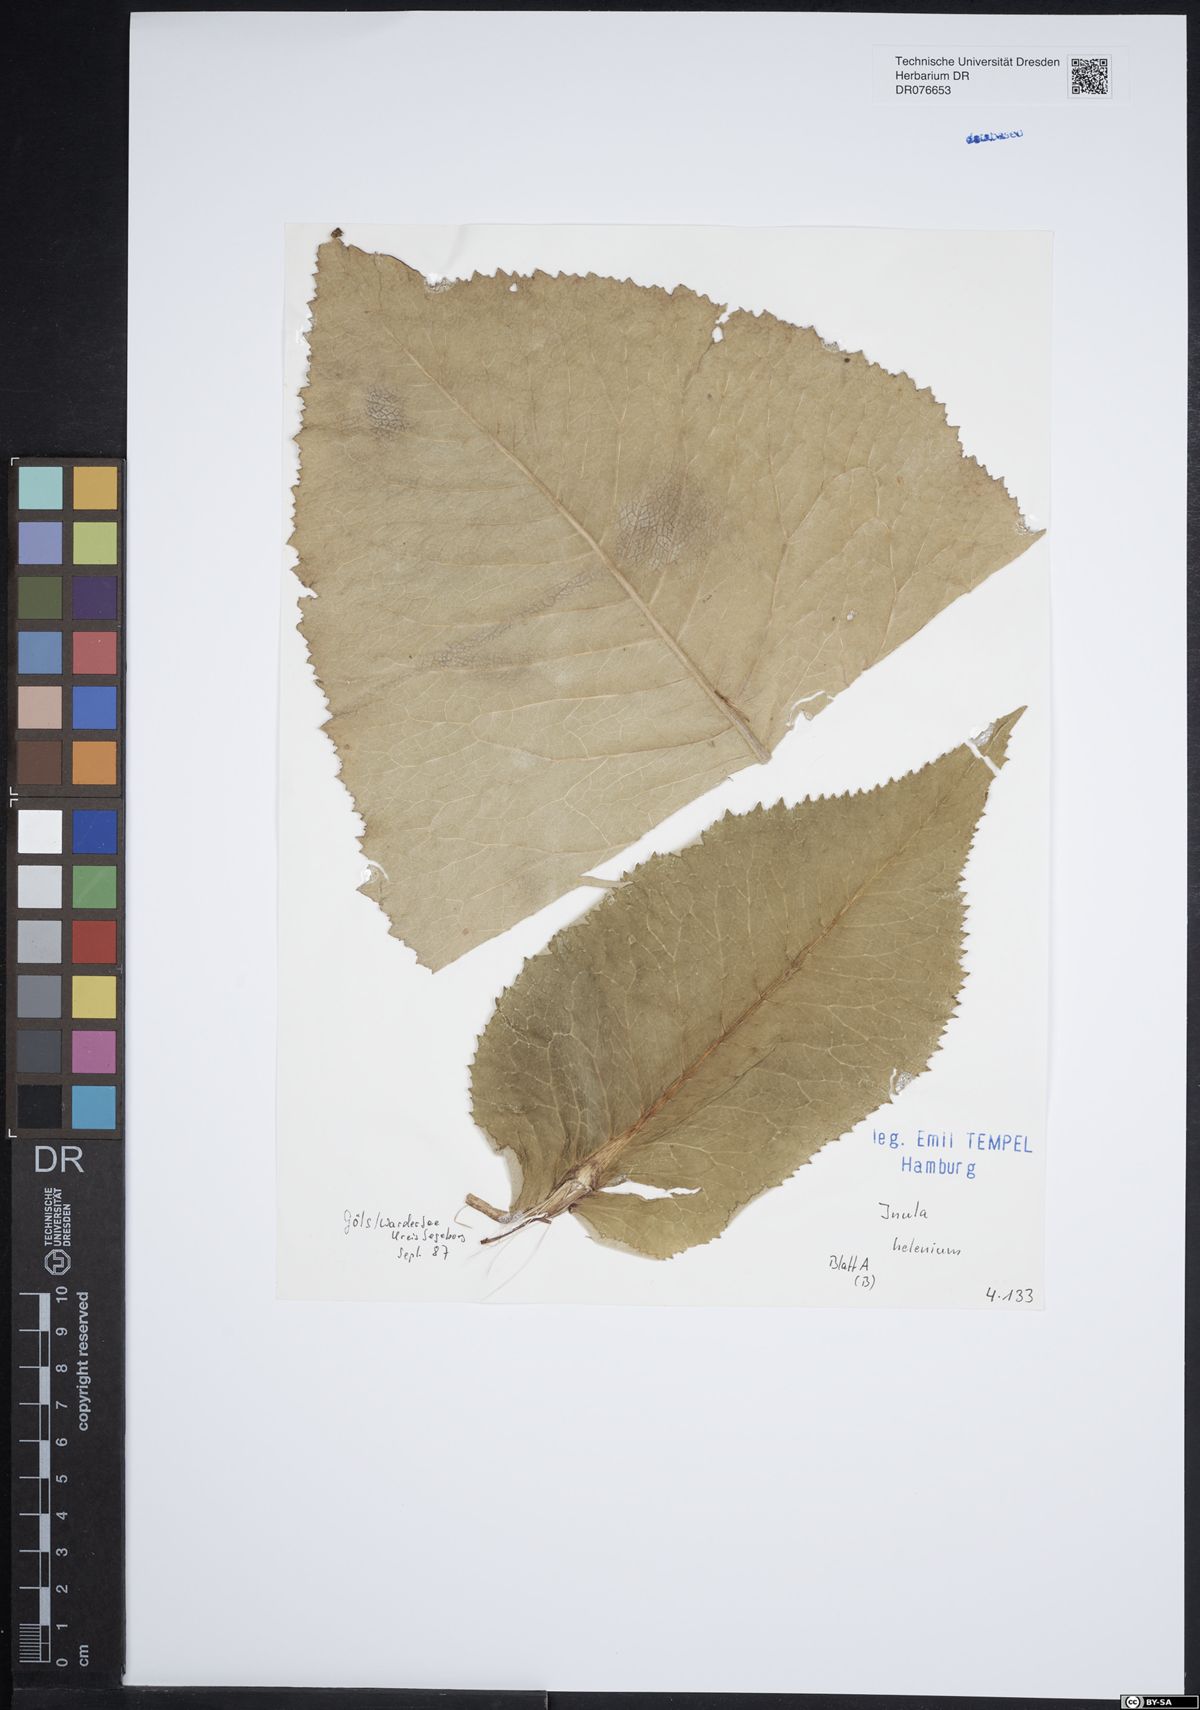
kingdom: Plantae
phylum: Tracheophyta
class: Magnoliopsida
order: Asterales
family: Asteraceae
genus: Inula
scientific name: Inula helenium
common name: Elecampane
